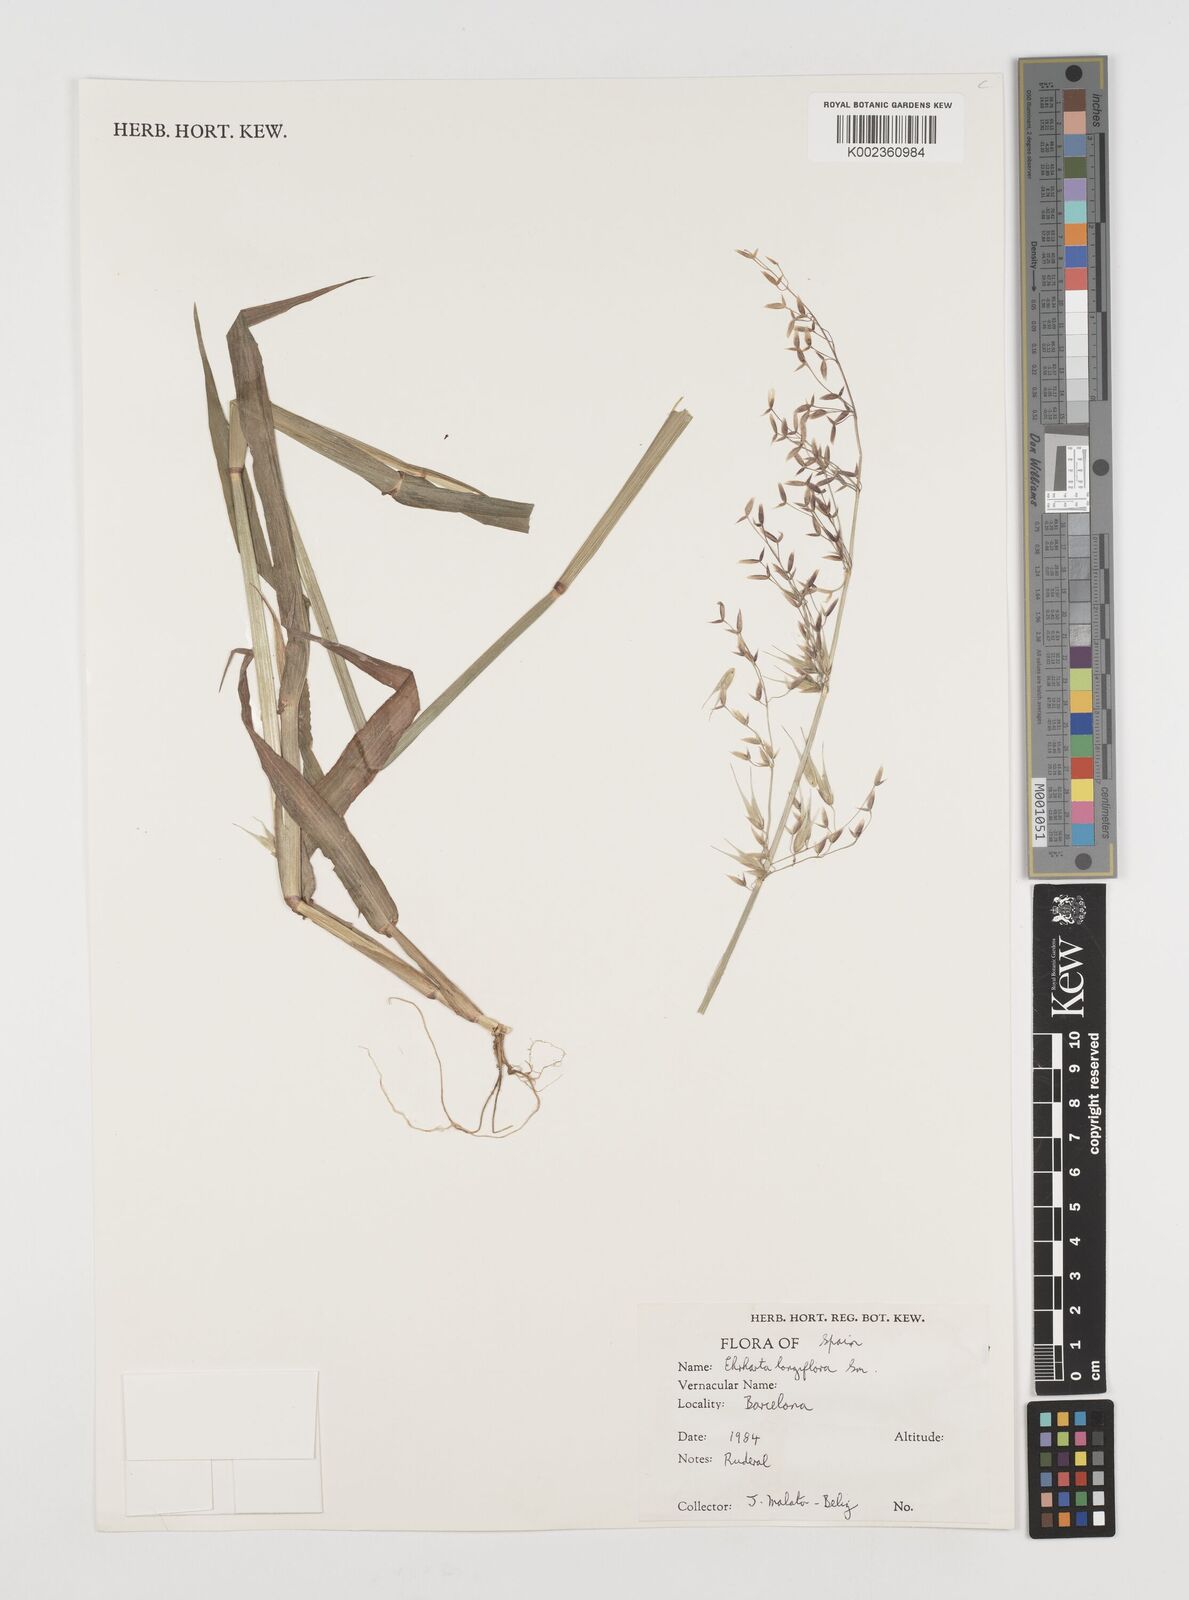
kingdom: Plantae
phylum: Tracheophyta
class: Liliopsida
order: Poales
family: Poaceae
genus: Ehrharta
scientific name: Ehrharta longiflora
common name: Longflowered veldtgrass
